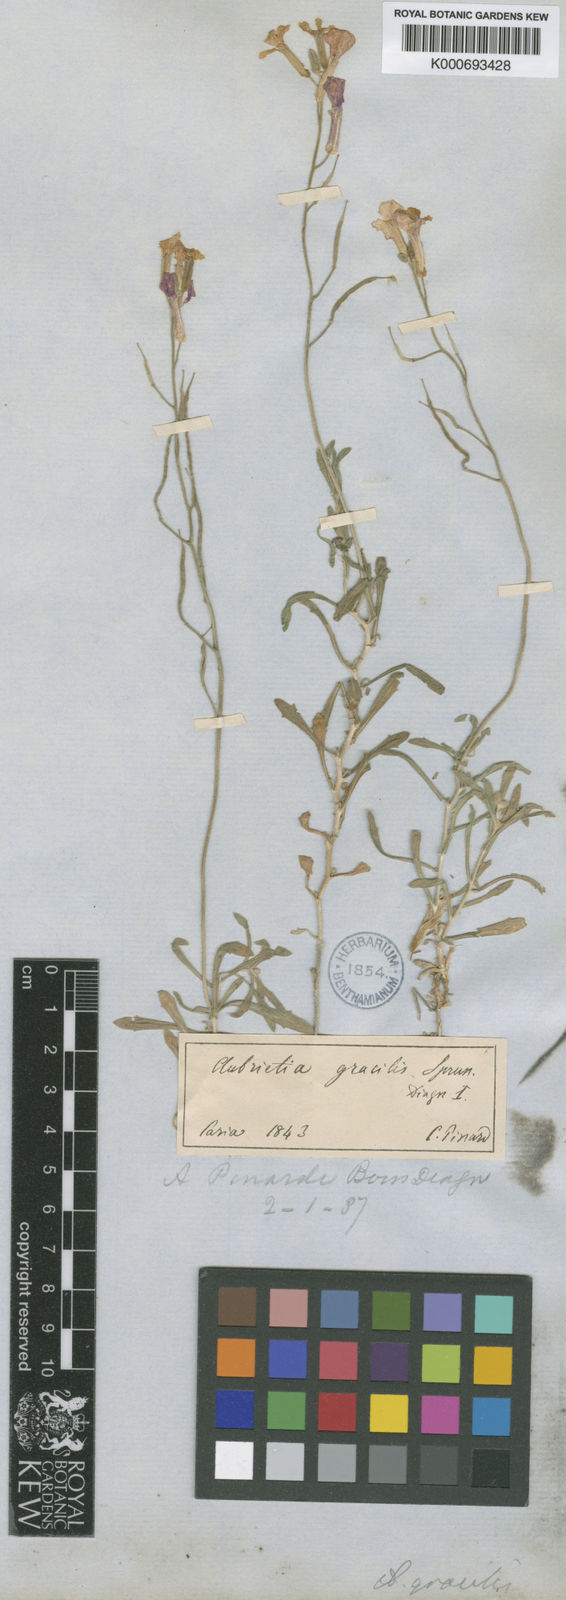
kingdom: Plantae
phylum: Tracheophyta
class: Magnoliopsida
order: Brassicales
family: Brassicaceae
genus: Aubrieta
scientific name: Aubrieta pinardii
